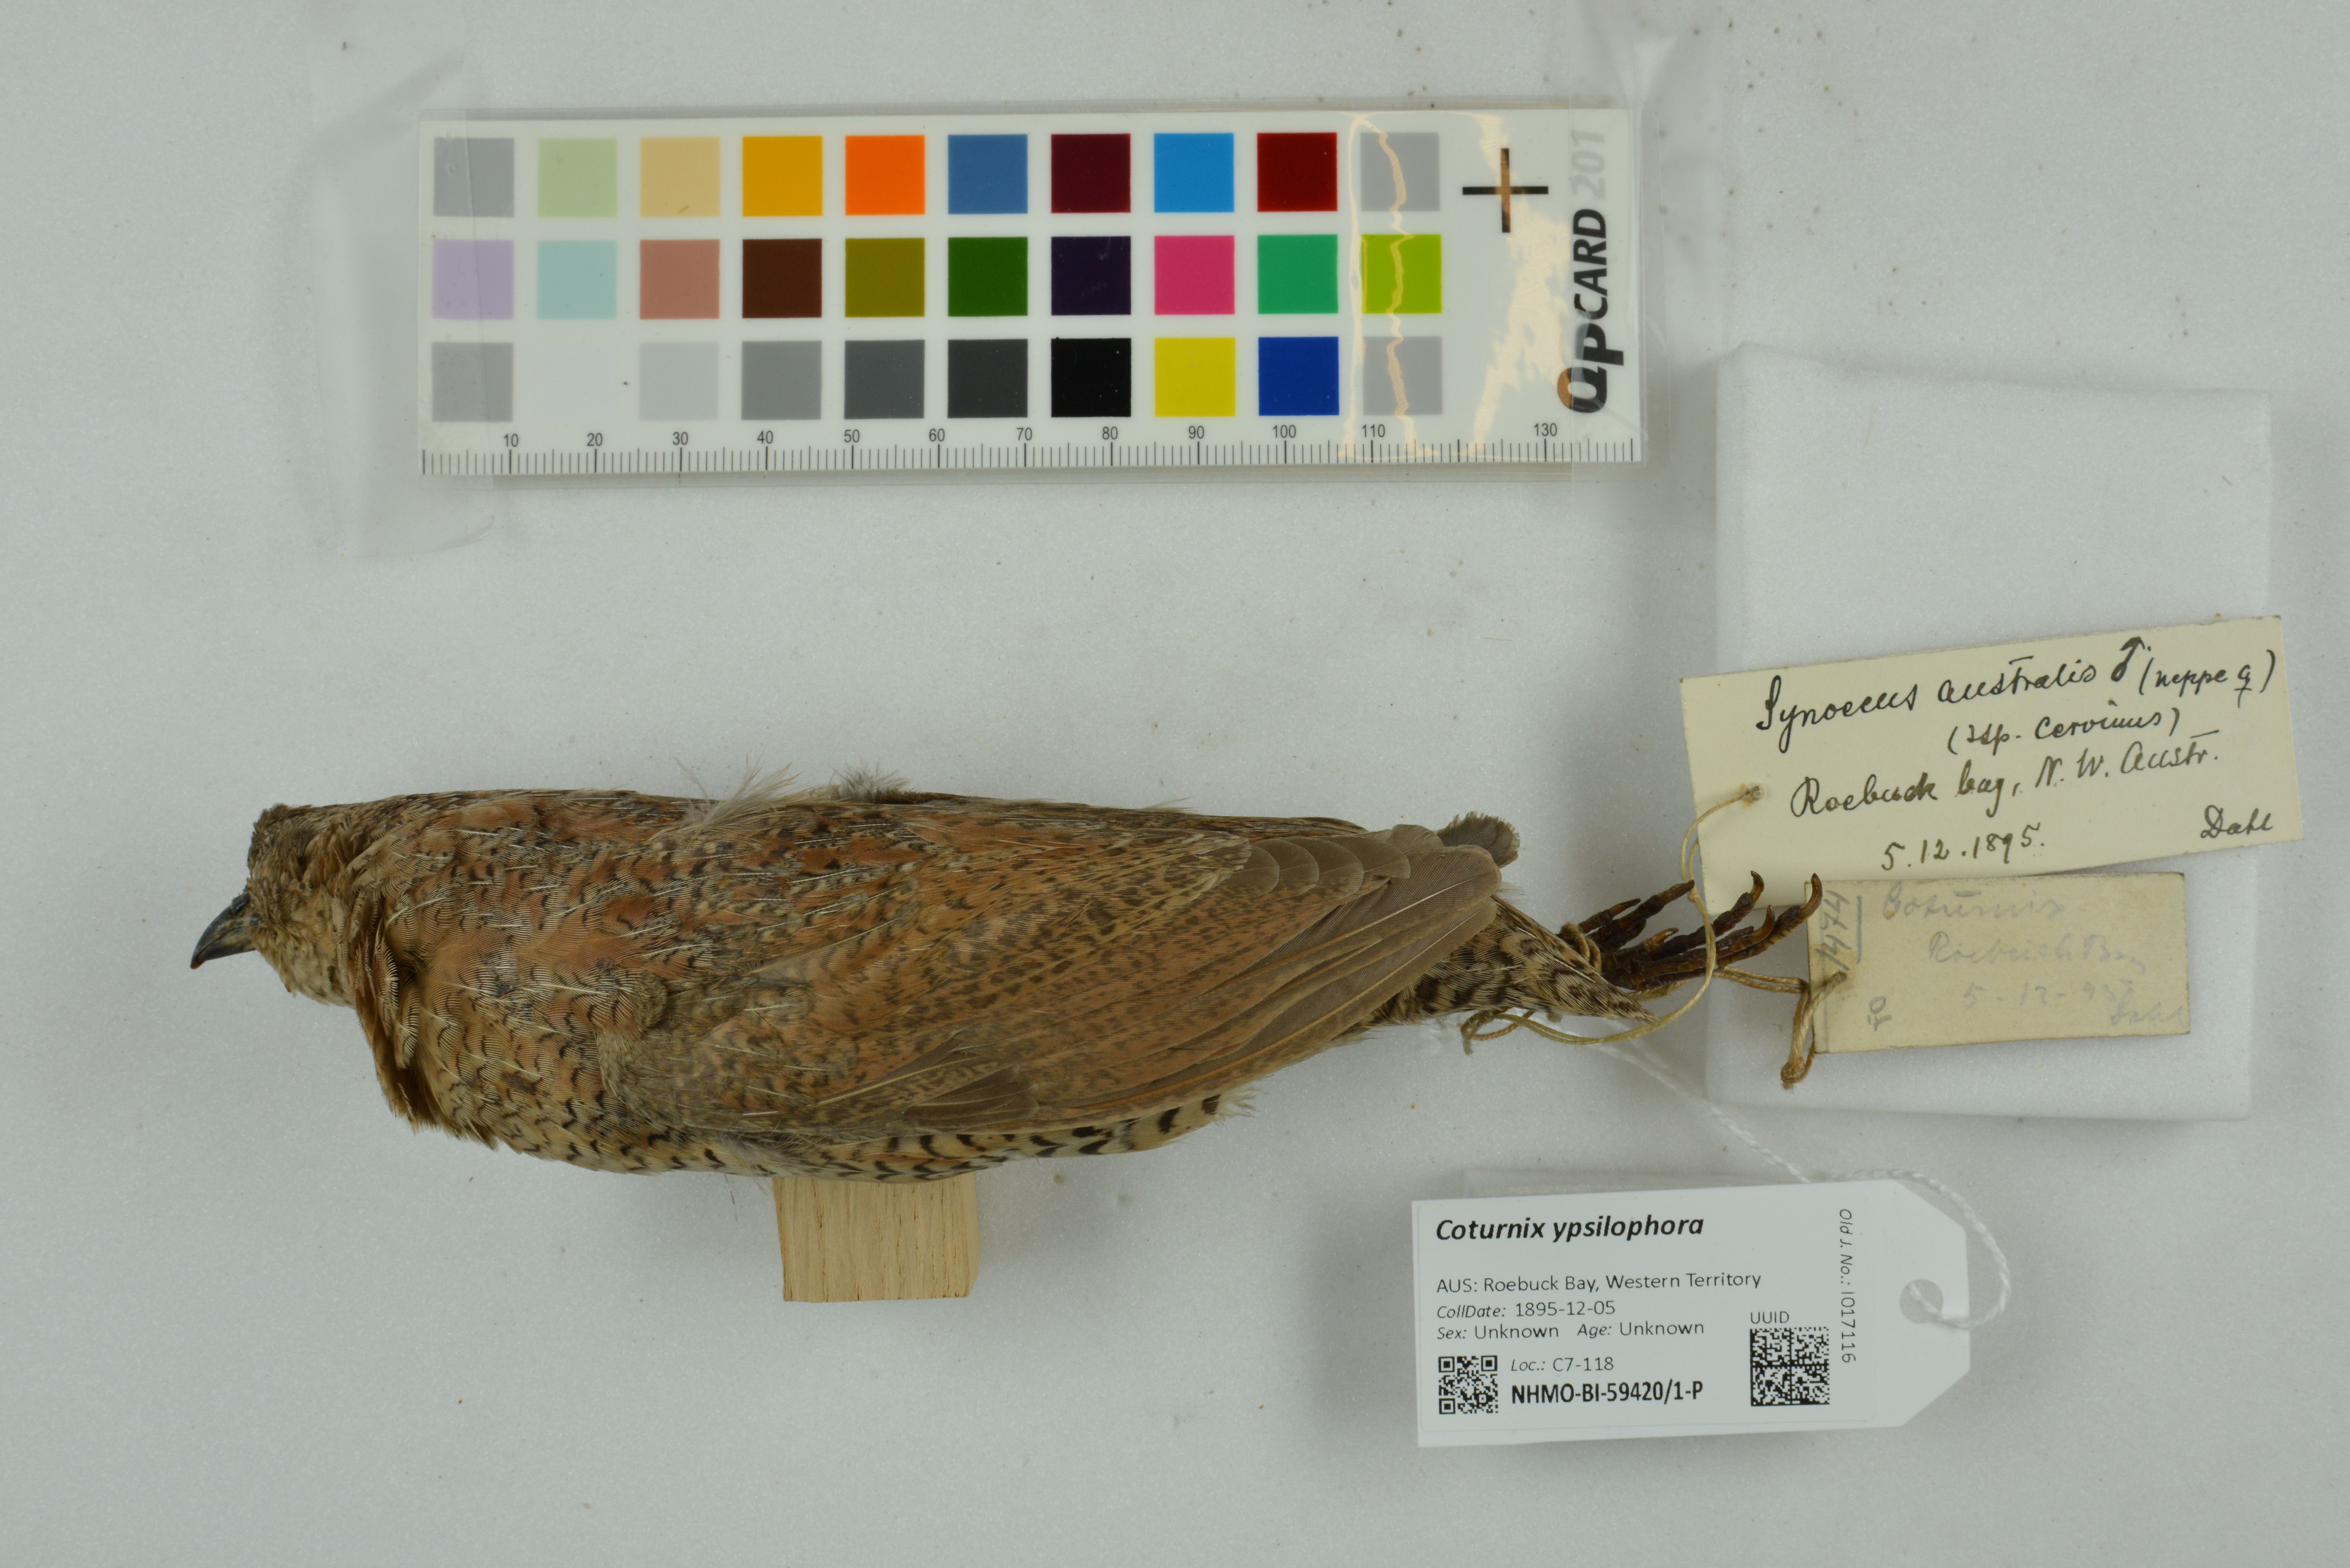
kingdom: Animalia
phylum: Chordata
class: Aves
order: Galliformes
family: Phasianidae
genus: Synoicus
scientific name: Synoicus ypsilophorus
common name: Brown quail
